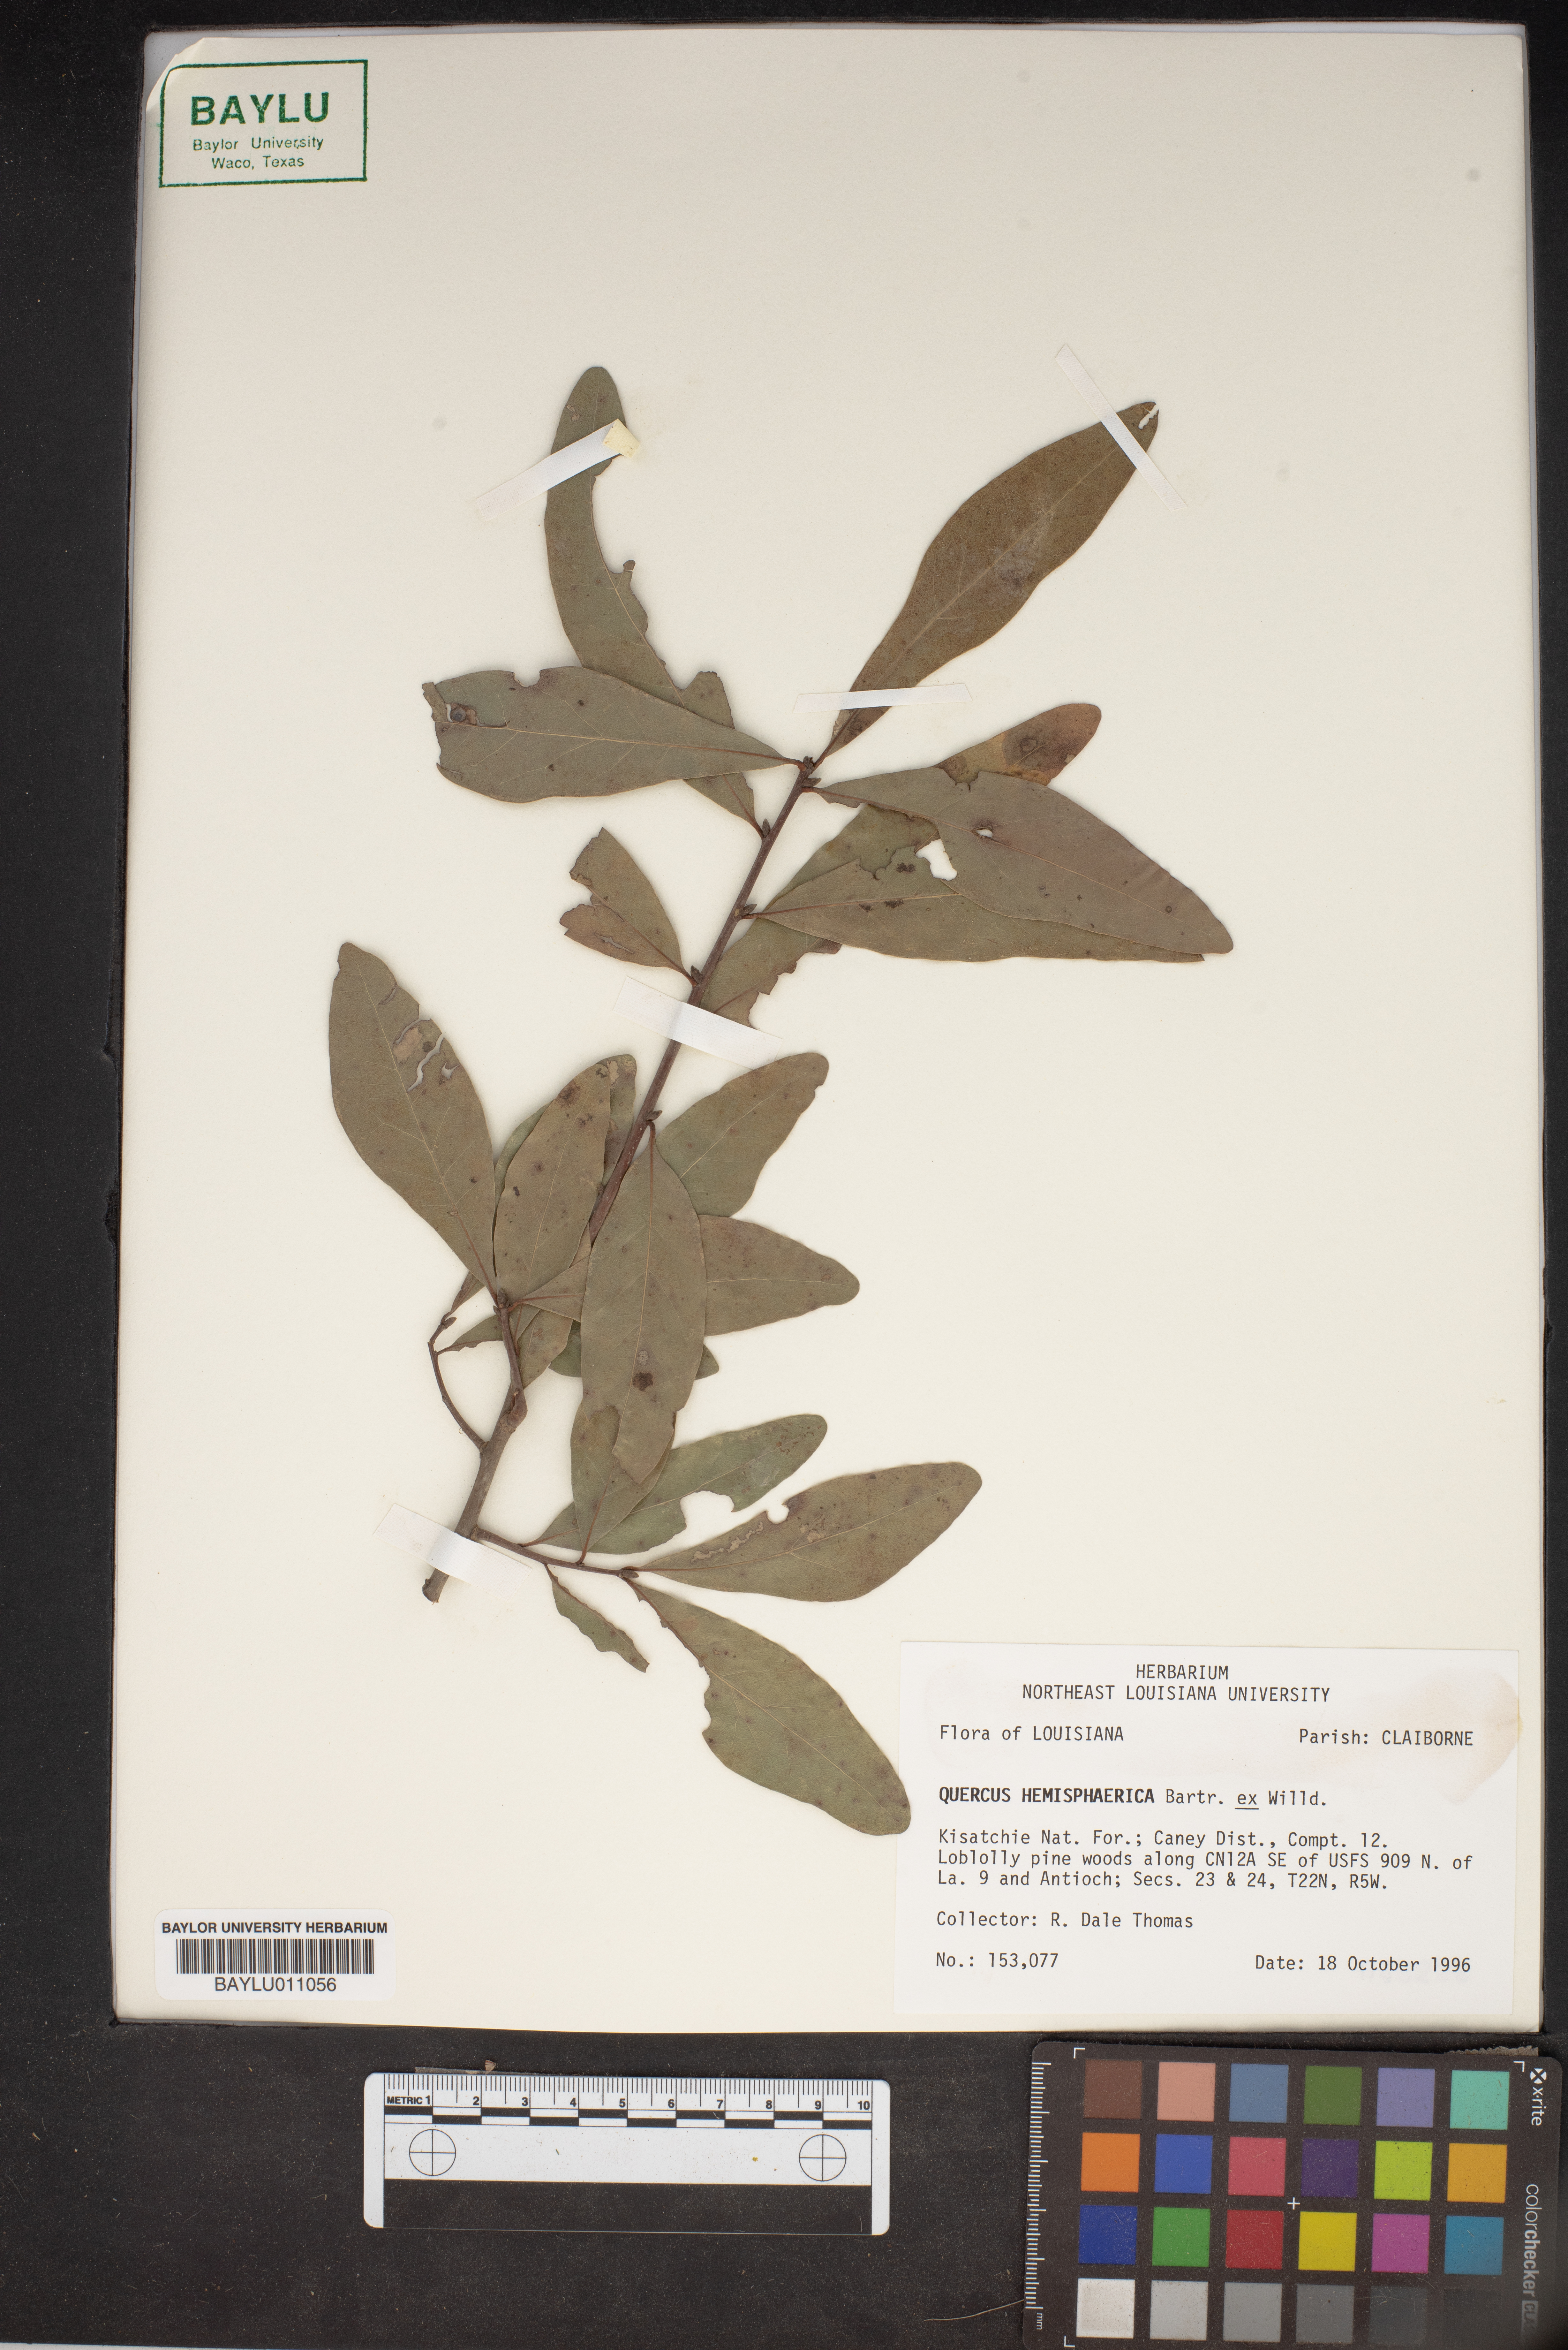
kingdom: Plantae
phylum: Tracheophyta
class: Magnoliopsida
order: Fagales
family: Fagaceae
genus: Quercus
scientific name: Quercus hemisphaerica
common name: Darlington oak
